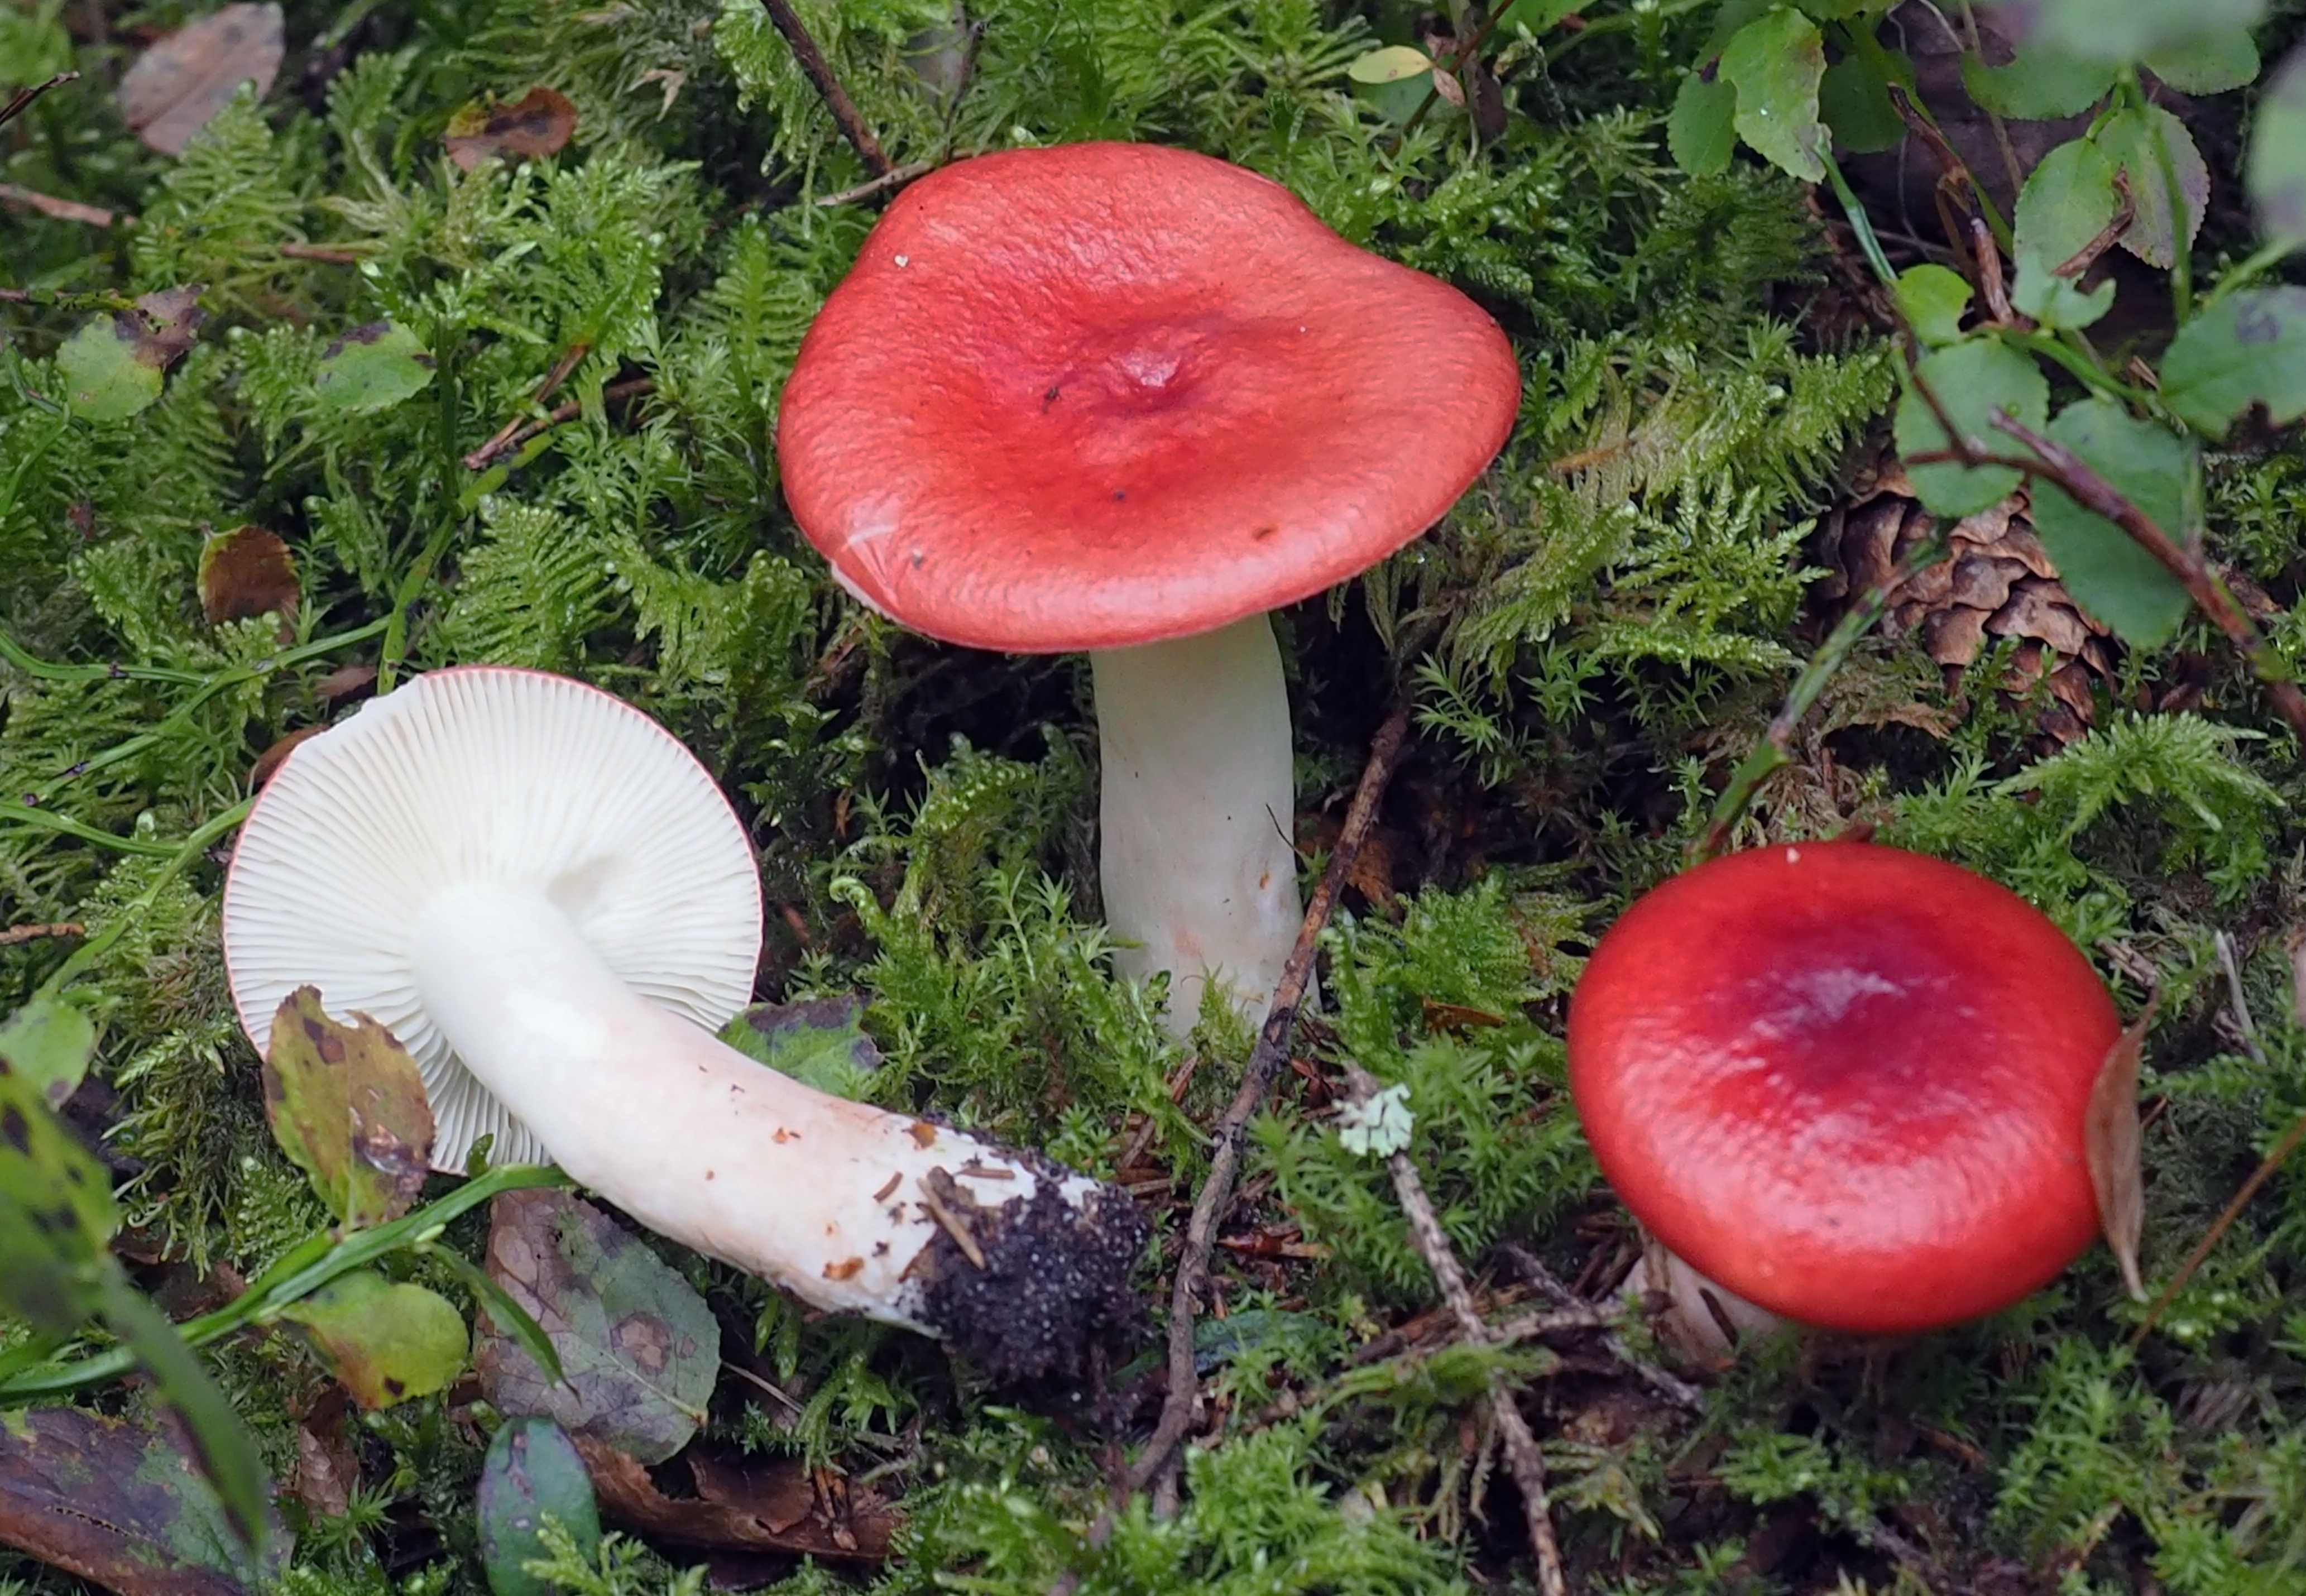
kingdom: Fungi
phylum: Basidiomycota
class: Agaricomycetes
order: Russulales
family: Russulaceae
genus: Russula
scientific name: Russula renidens
